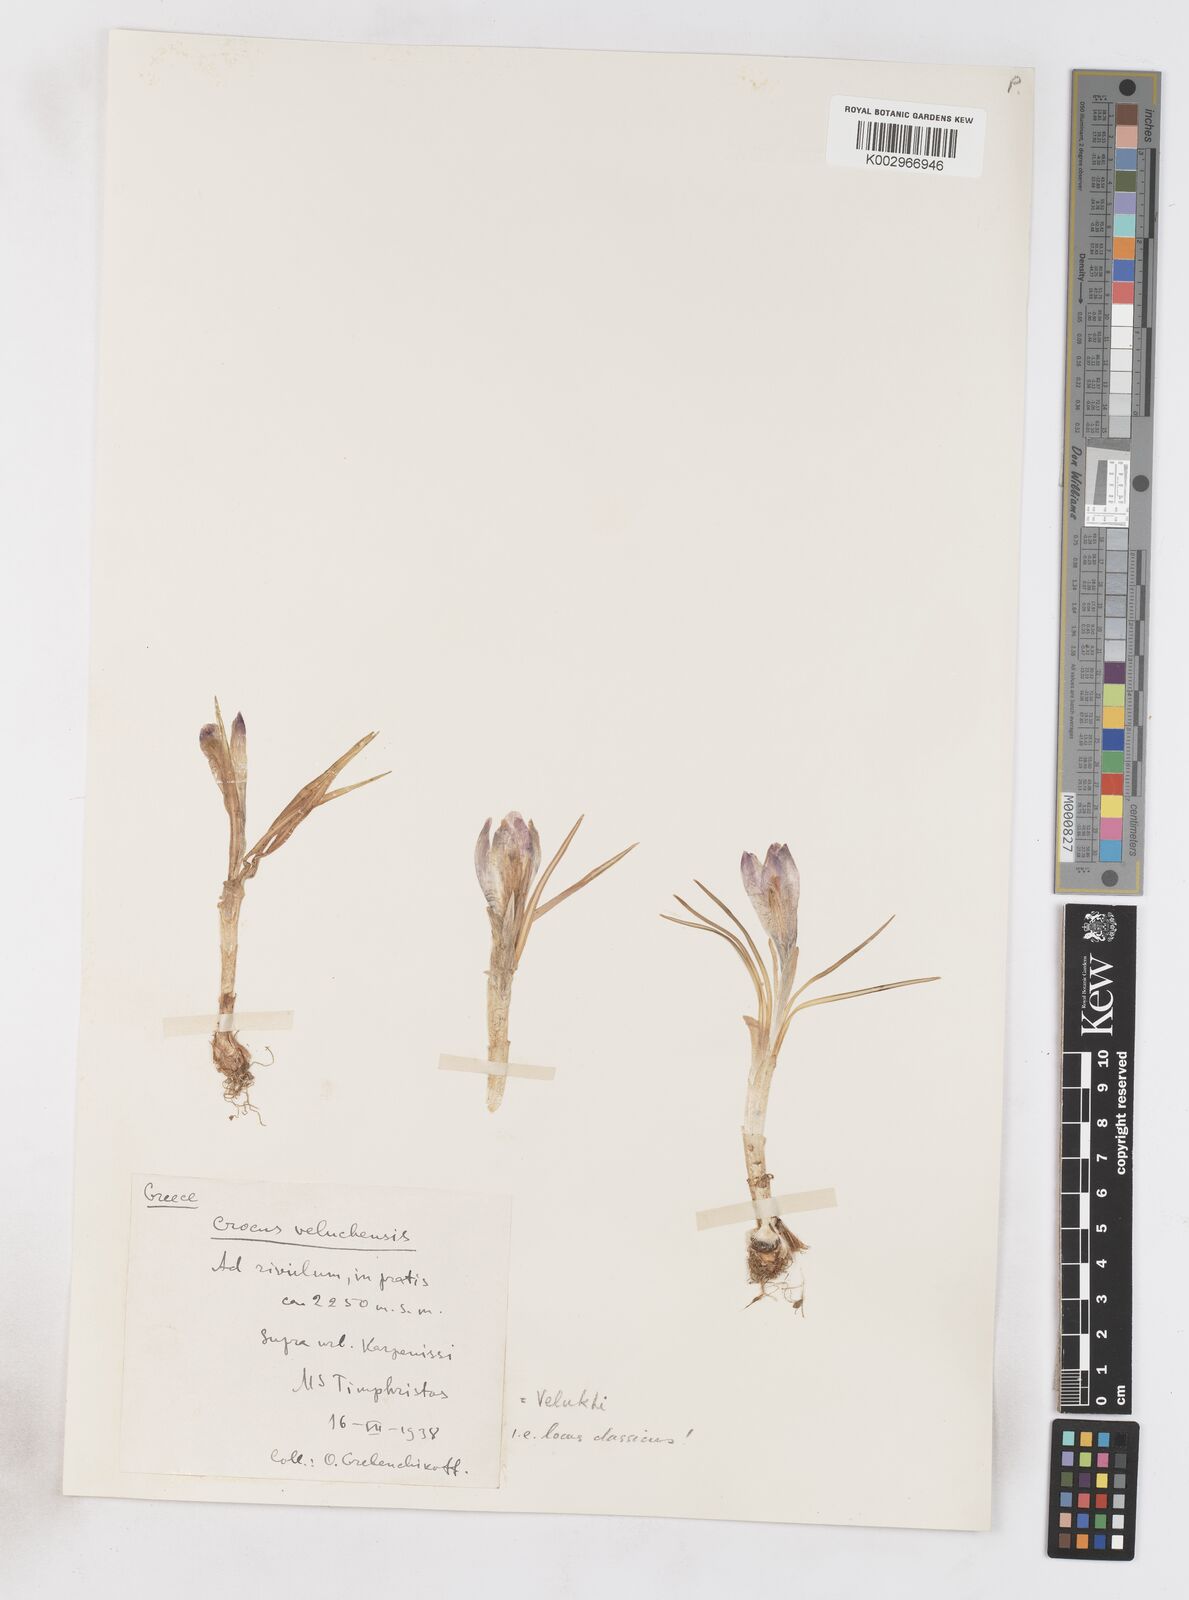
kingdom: Plantae
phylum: Tracheophyta
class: Liliopsida
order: Asparagales
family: Iridaceae
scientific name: Iridaceae
